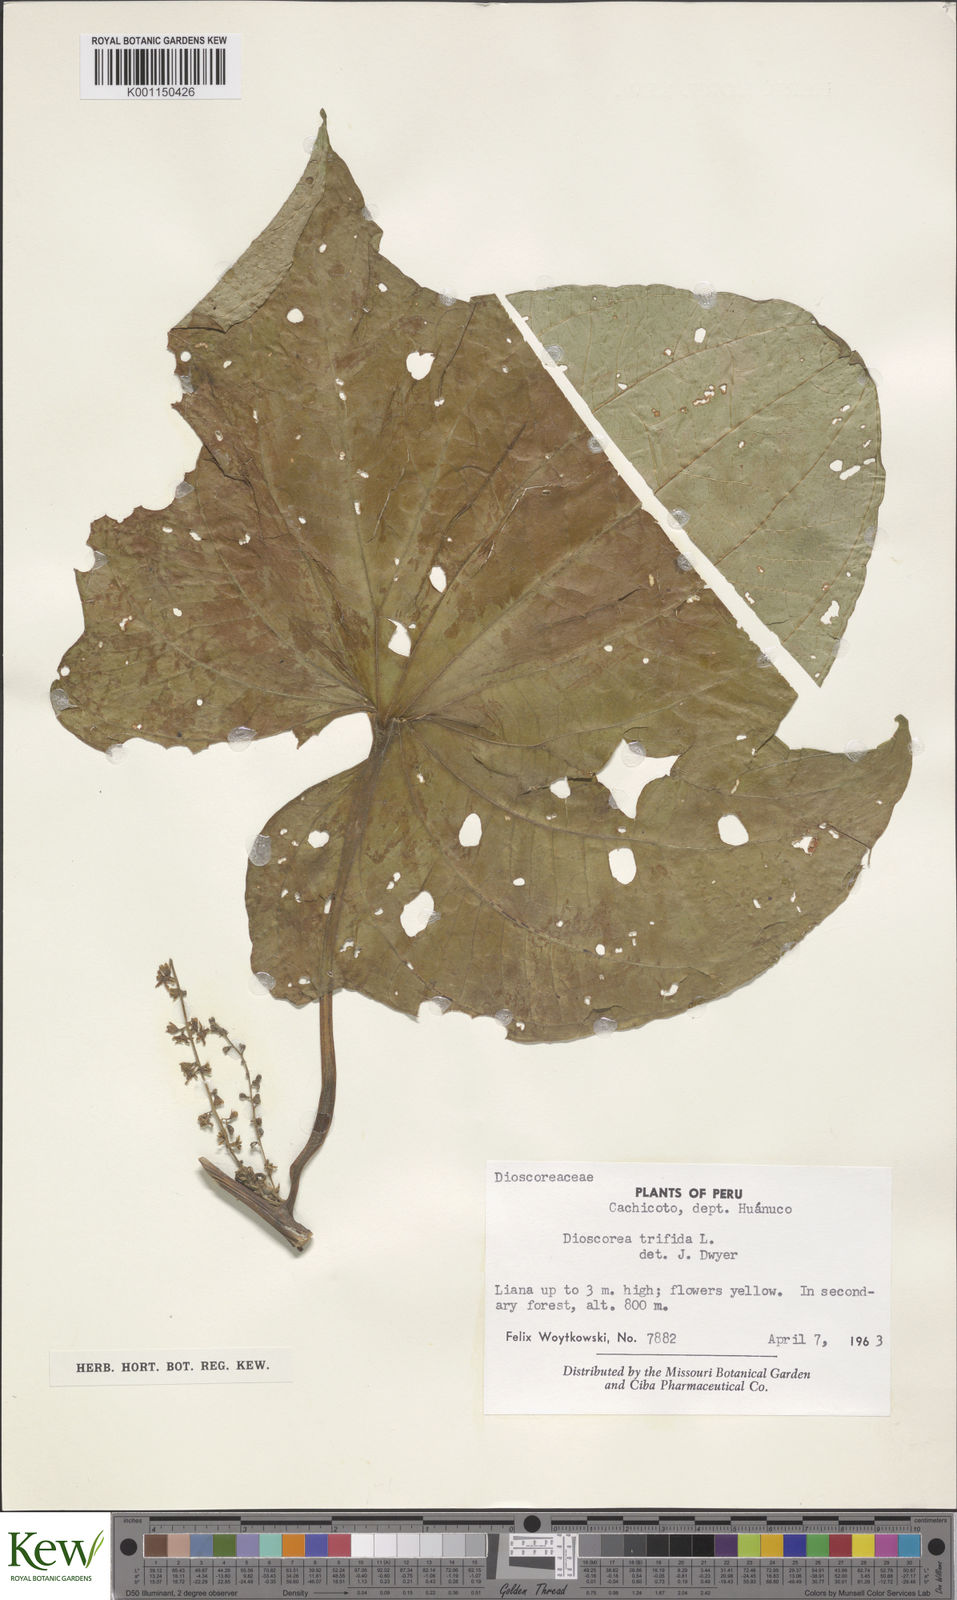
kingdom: Plantae
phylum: Tracheophyta
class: Liliopsida
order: Dioscoreales
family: Dioscoreaceae
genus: Dioscorea
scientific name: Dioscorea trifida
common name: Cush-cush
